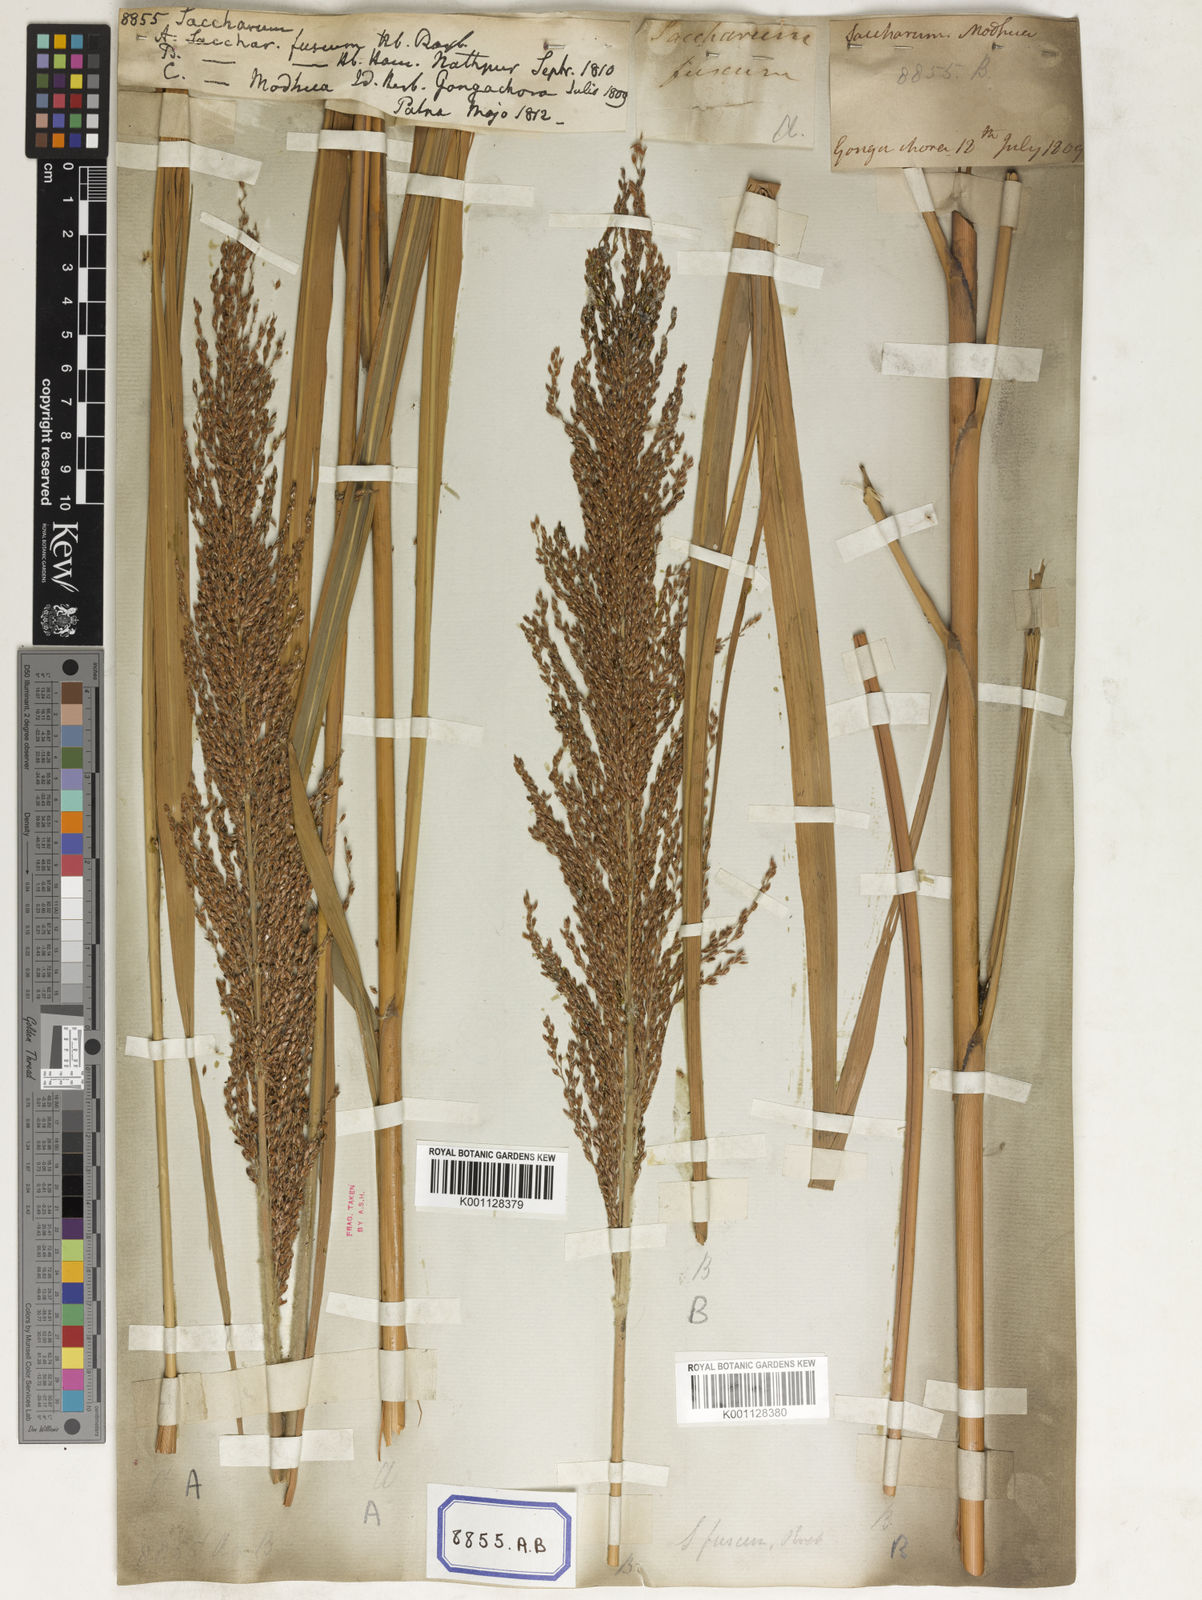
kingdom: Plantae
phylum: Tracheophyta
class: Liliopsida
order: Poales
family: Poaceae
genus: Saccharum
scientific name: Saccharum
